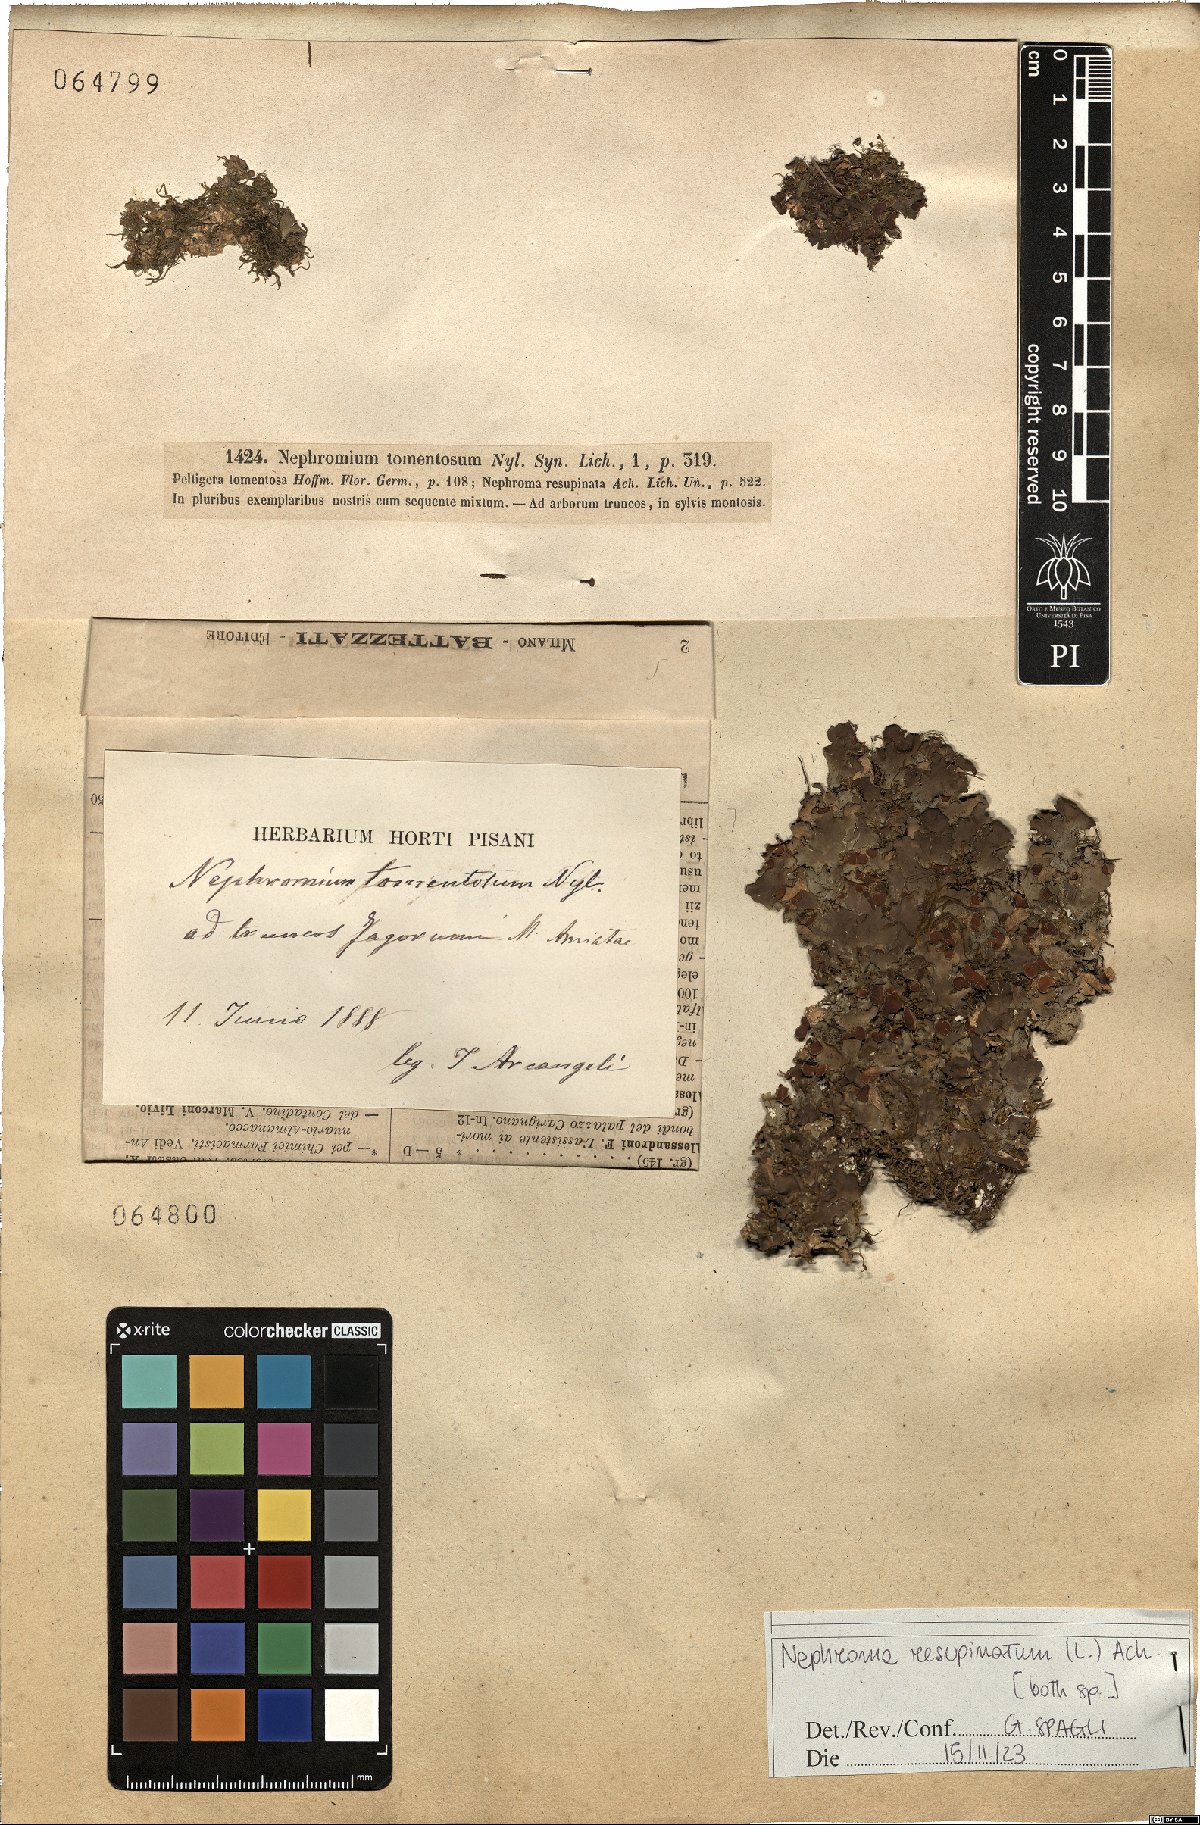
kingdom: Fungi
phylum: Ascomycota
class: Lecanoromycetes
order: Peltigerales
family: Nephromataceae
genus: Nephroma
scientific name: Nephroma resupinatum
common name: Pimpled kidney lichen
